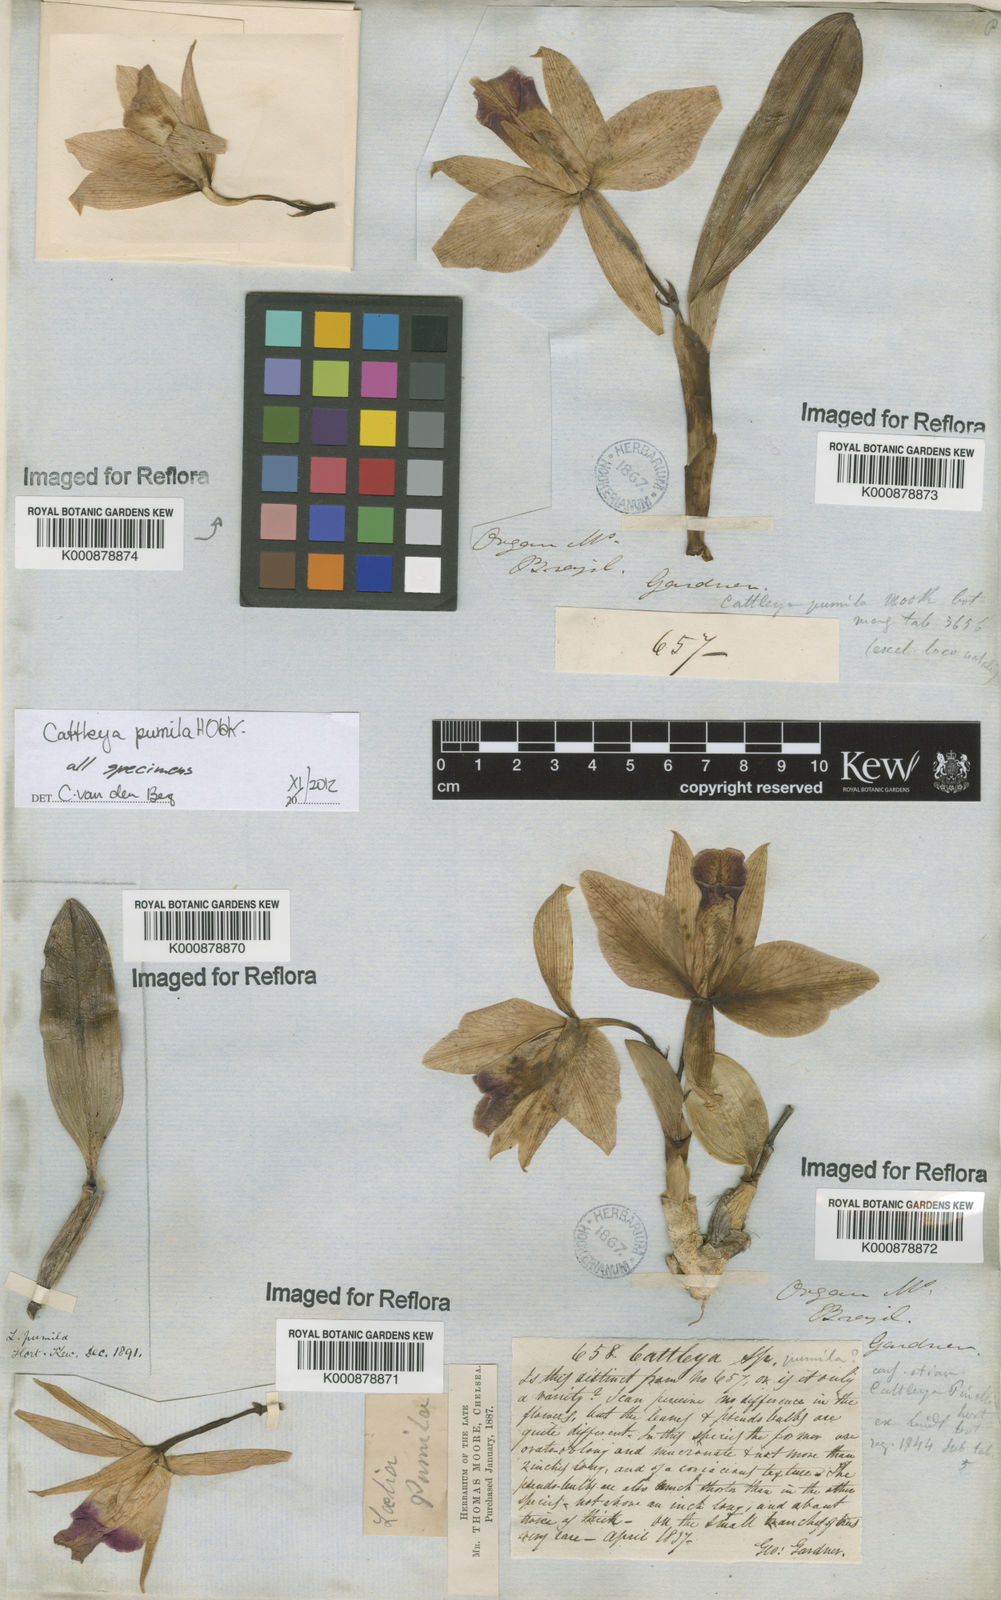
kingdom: Plantae
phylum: Tracheophyta
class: Liliopsida
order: Asparagales
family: Orchidaceae
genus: Cattleya
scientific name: Cattleya pumila
